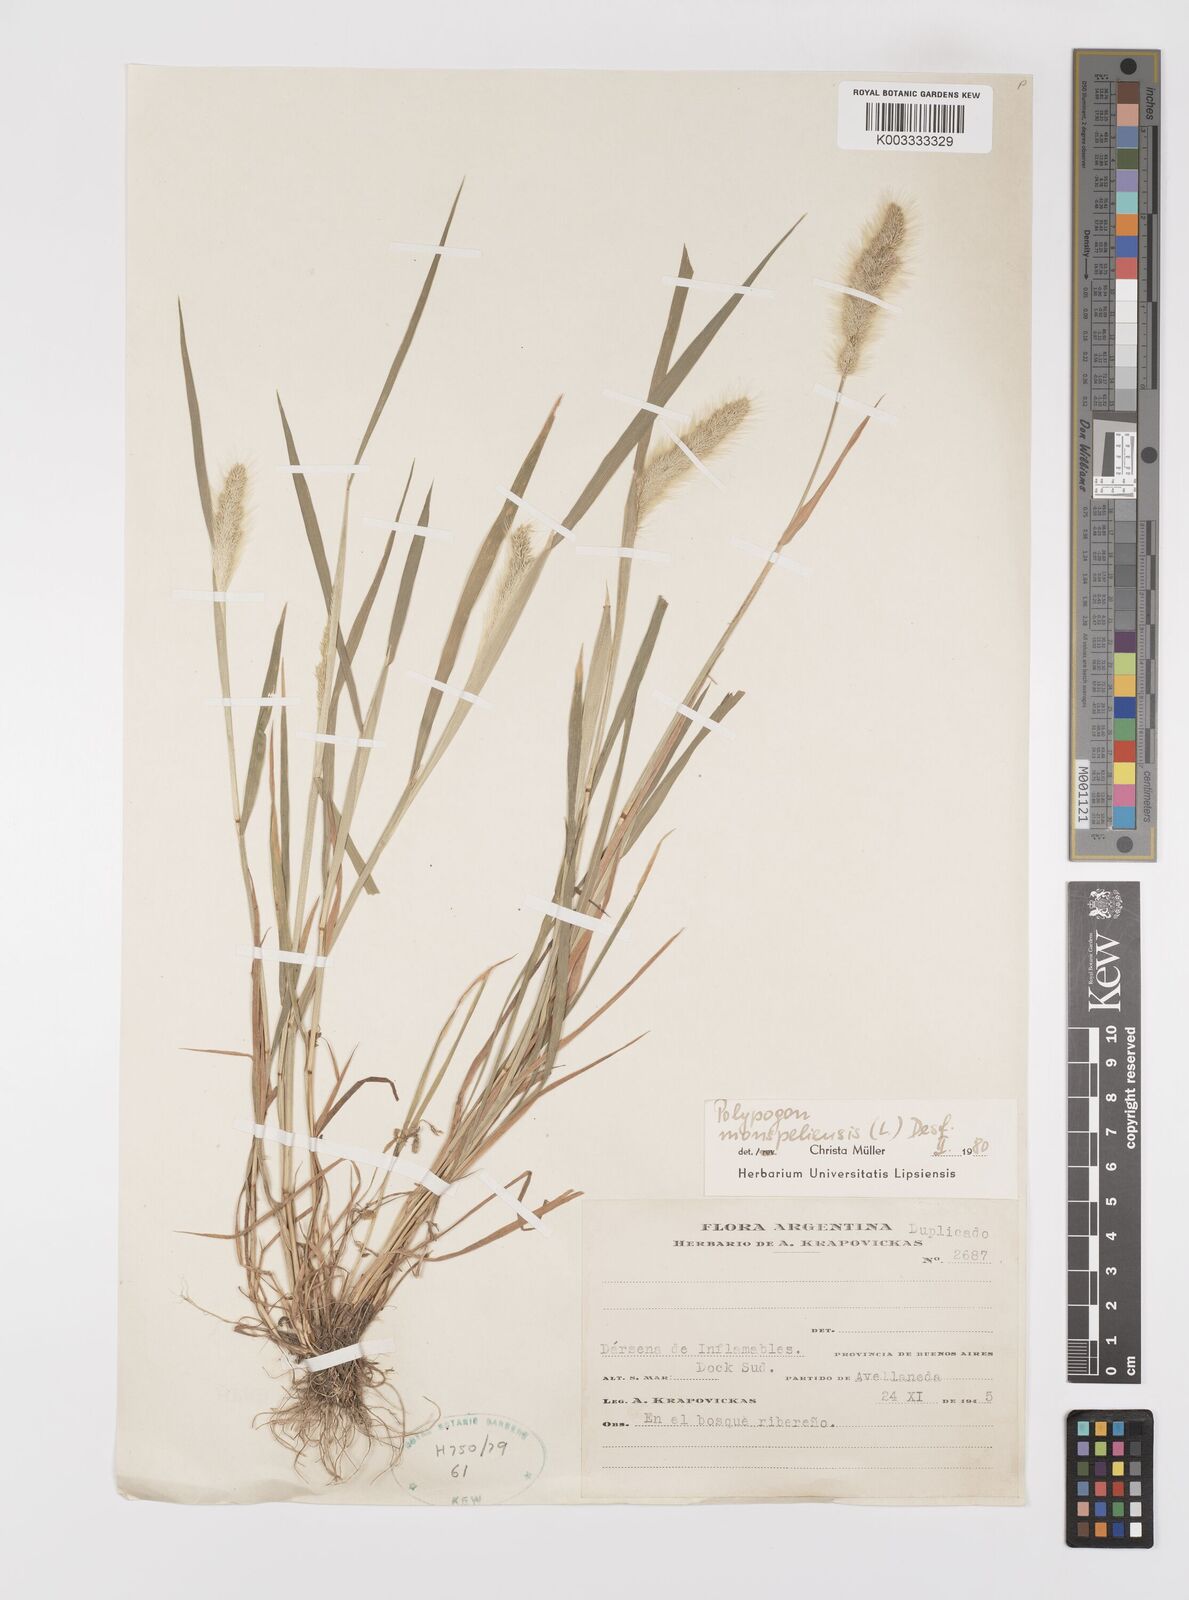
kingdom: Plantae
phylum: Tracheophyta
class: Liliopsida
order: Poales
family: Poaceae
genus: Polypogon
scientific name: Polypogon monspeliensis
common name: Annual rabbitsfoot grass
